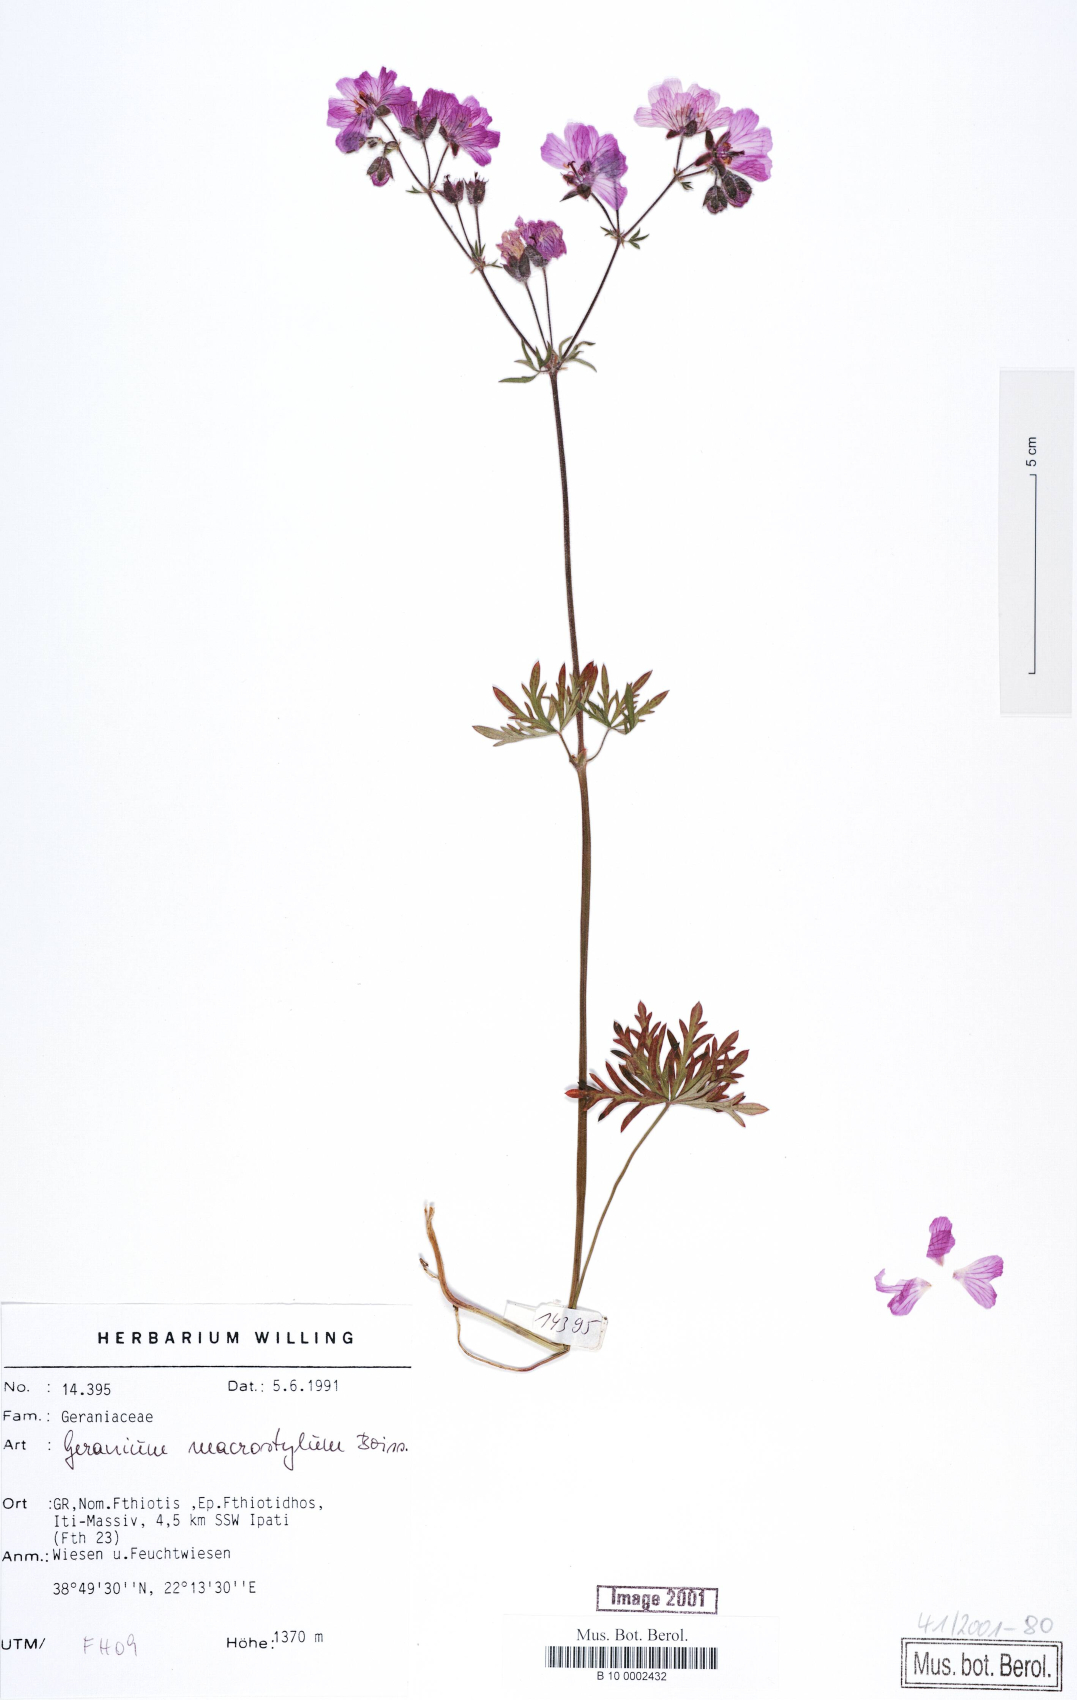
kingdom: Plantae
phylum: Tracheophyta
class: Magnoliopsida
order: Geraniales
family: Geraniaceae
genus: Geranium
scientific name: Geranium macrostylum
